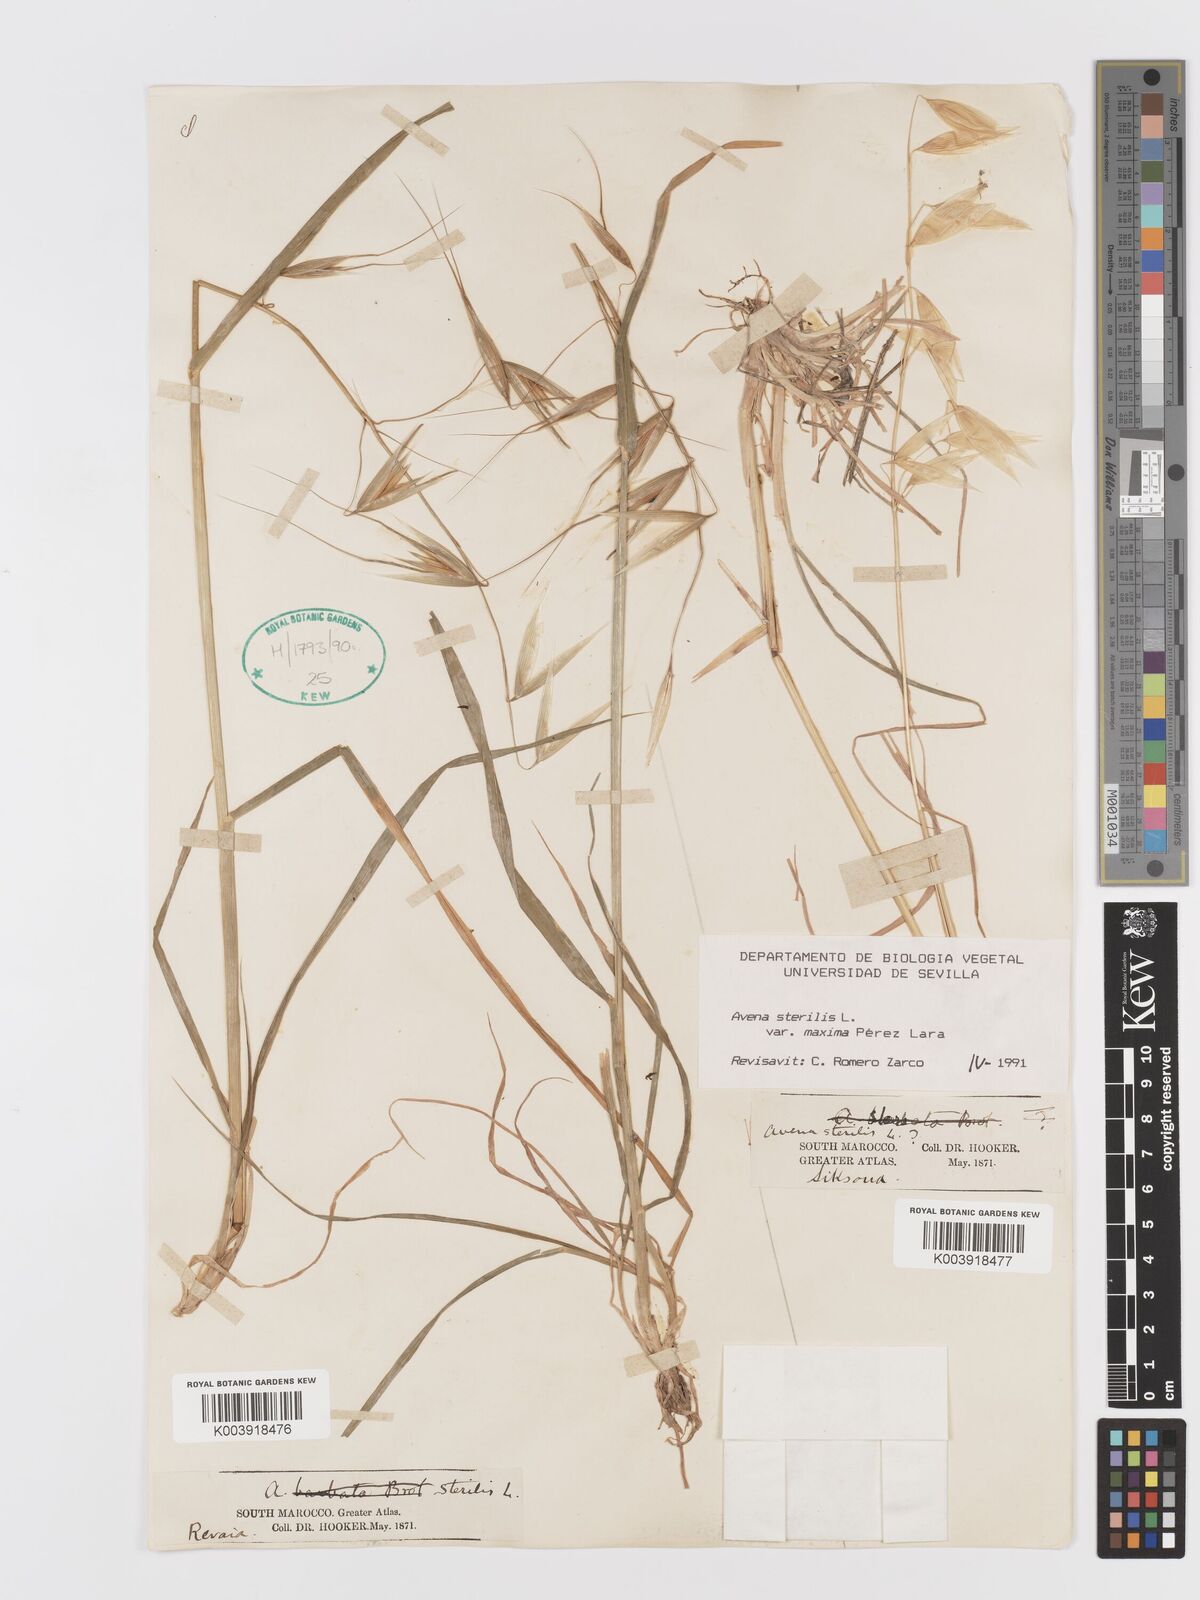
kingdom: Plantae
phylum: Tracheophyta
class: Liliopsida
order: Poales
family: Poaceae
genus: Avena
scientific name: Avena sterilis
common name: Animated oat
